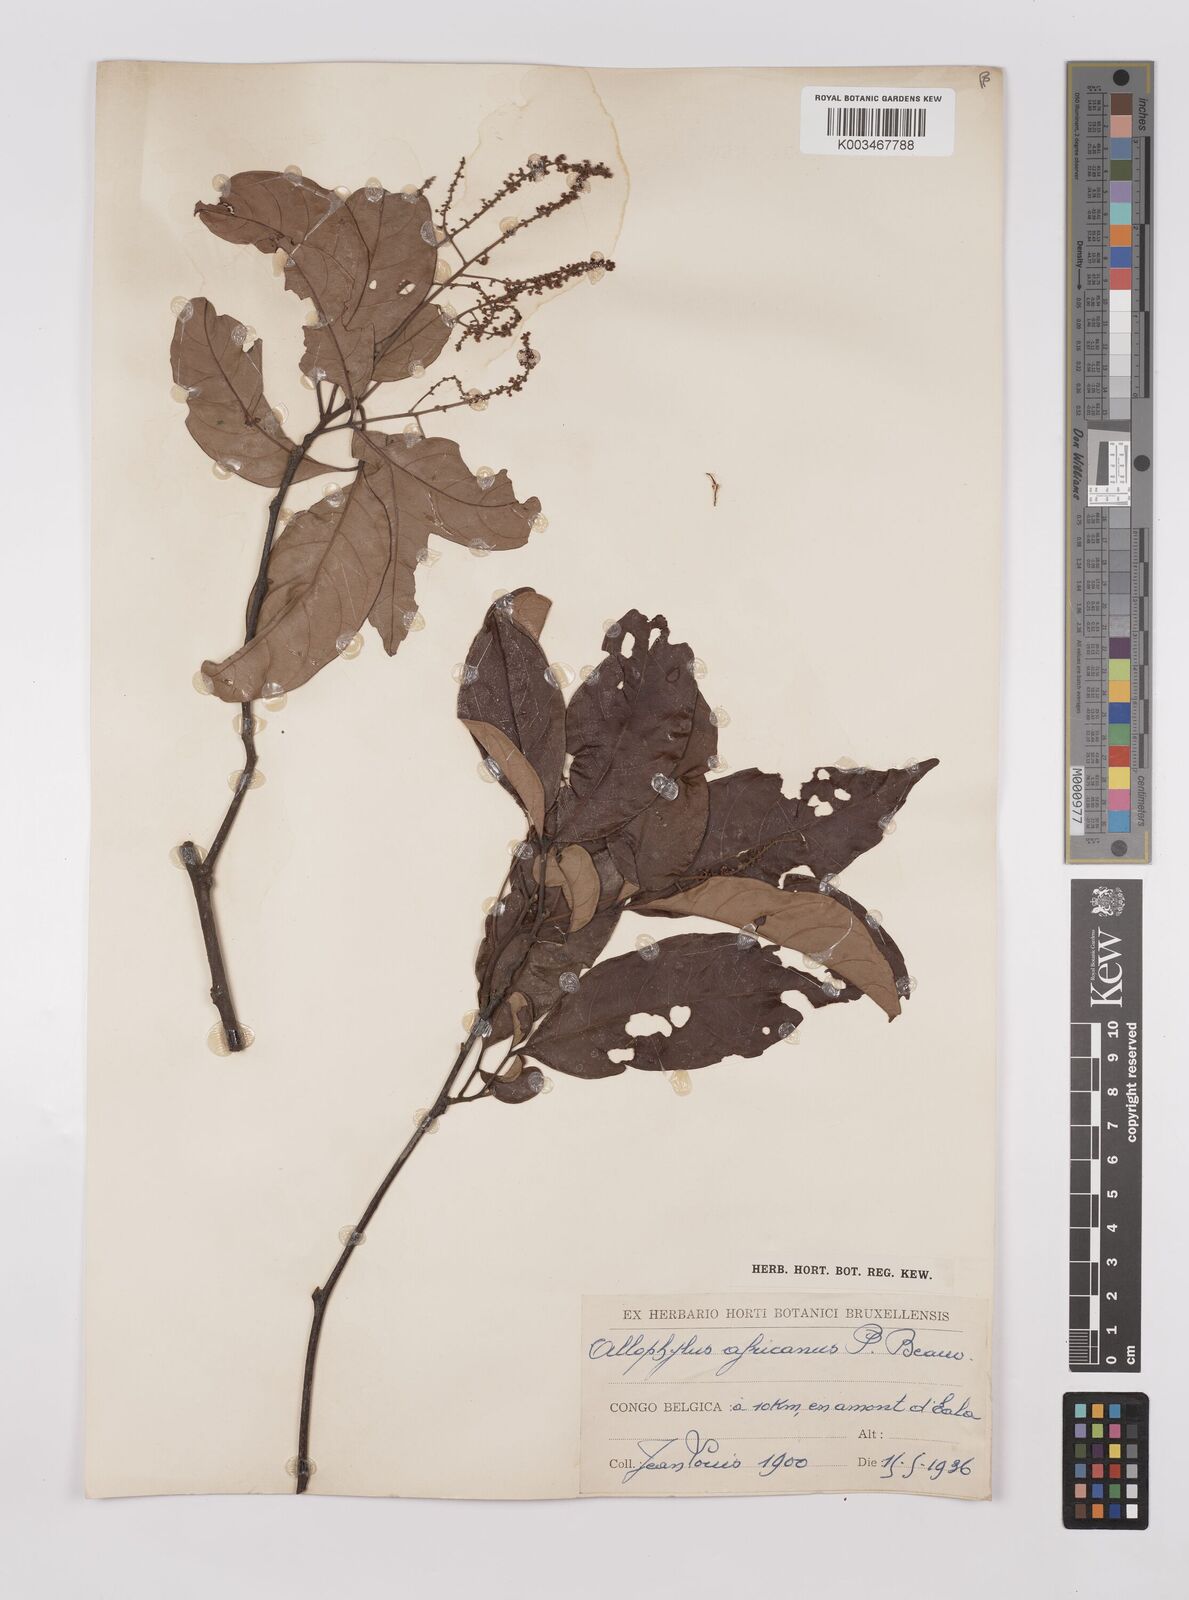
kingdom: Plantae
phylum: Tracheophyta
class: Magnoliopsida
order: Sapindales
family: Sapindaceae
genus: Allophylus
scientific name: Allophylus africanus
